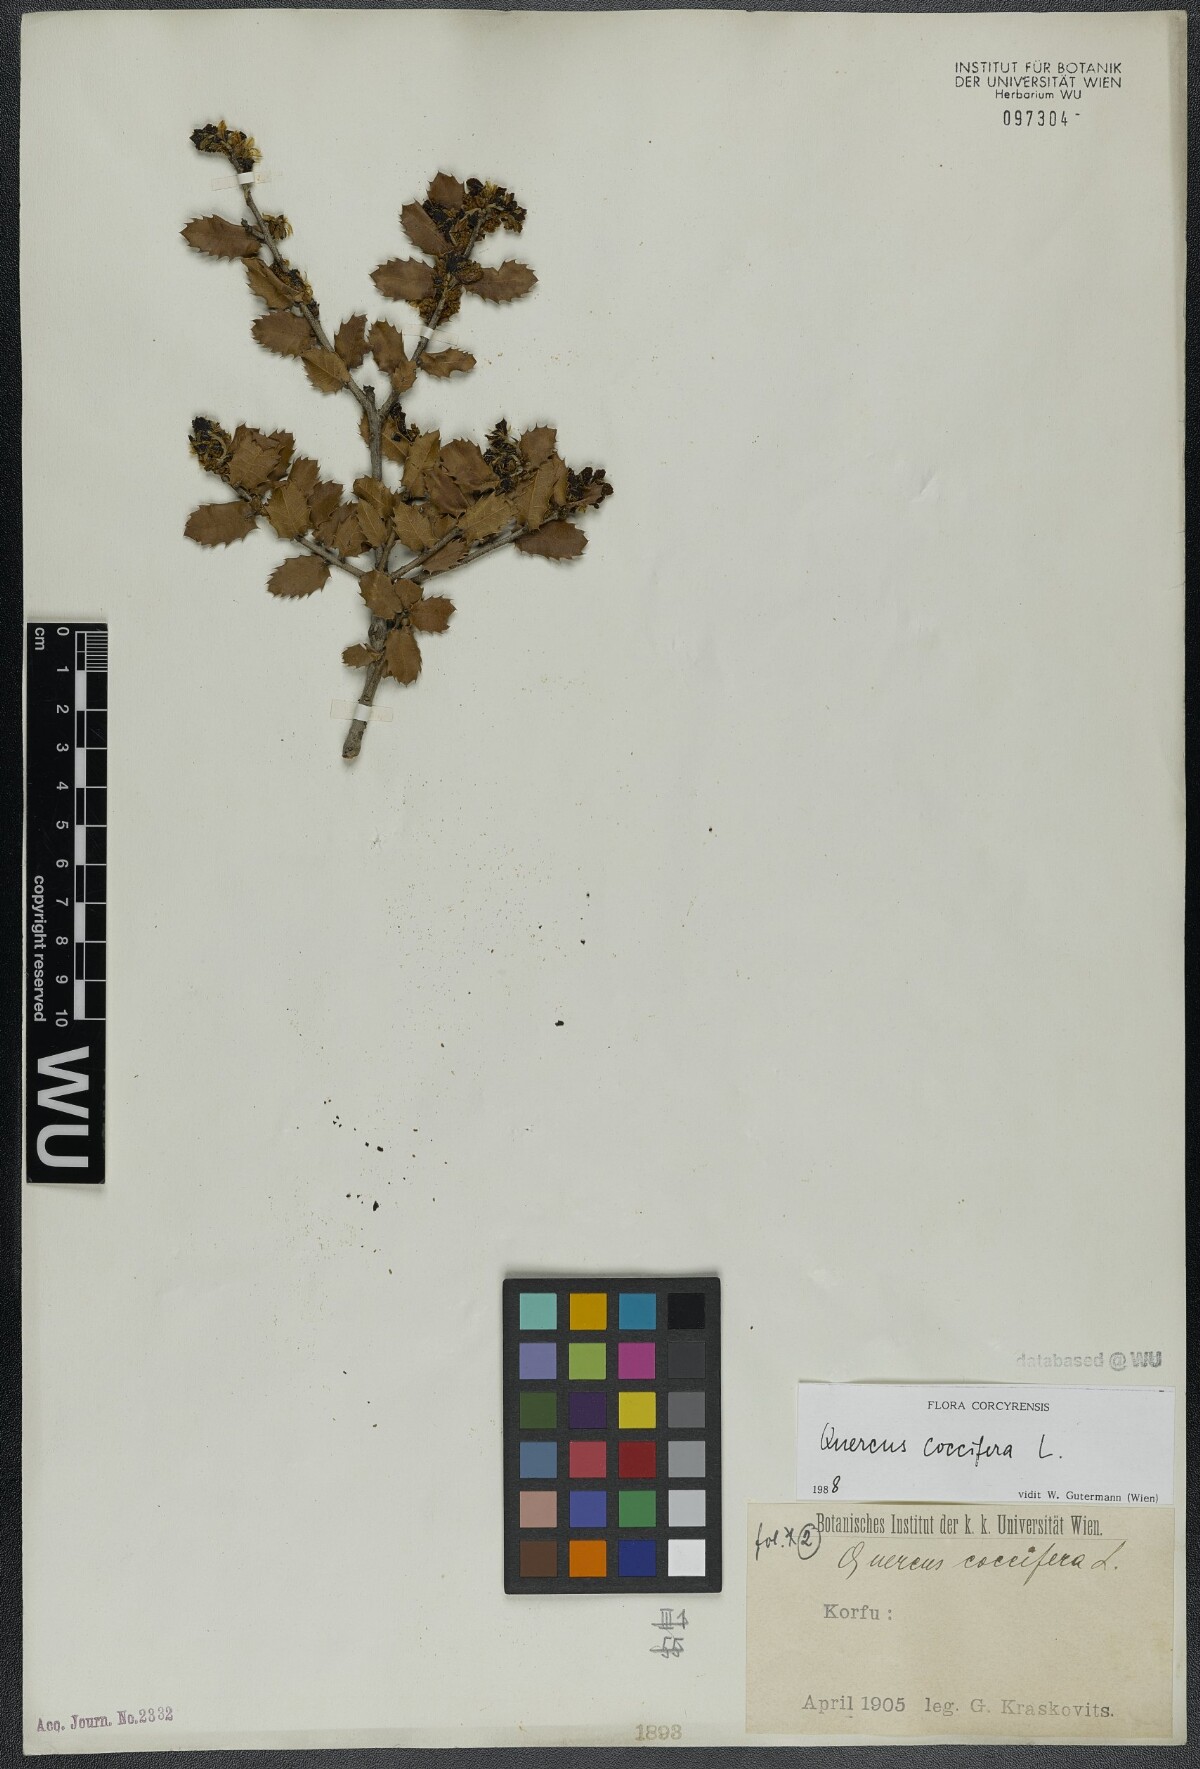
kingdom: Plantae
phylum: Tracheophyta
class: Magnoliopsida
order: Fagales
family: Fagaceae
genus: Quercus
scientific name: Quercus coccifera
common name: Kermes oak
